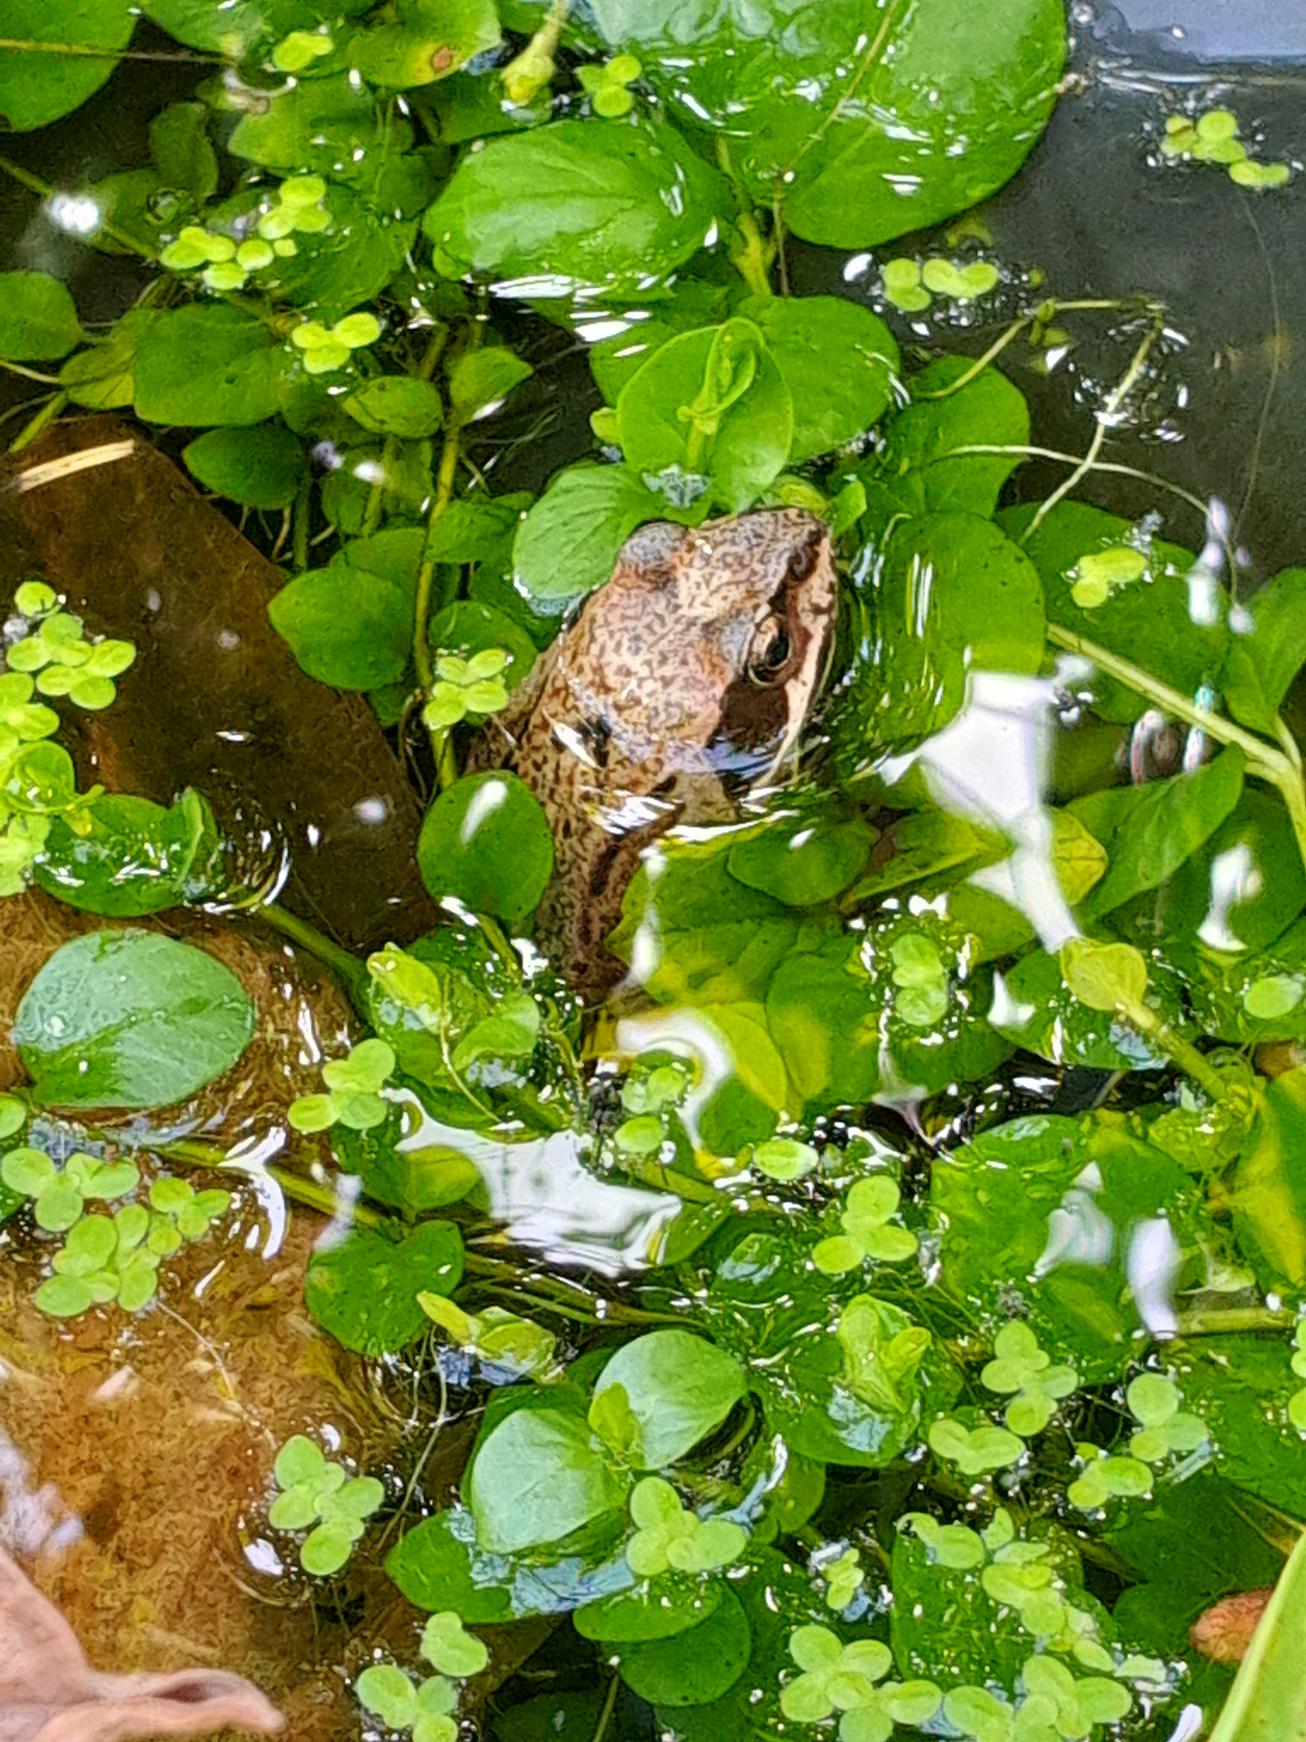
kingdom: Animalia
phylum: Chordata
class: Amphibia
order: Anura
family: Ranidae
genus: Rana
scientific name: Rana temporaria
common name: Butsnudet frø
